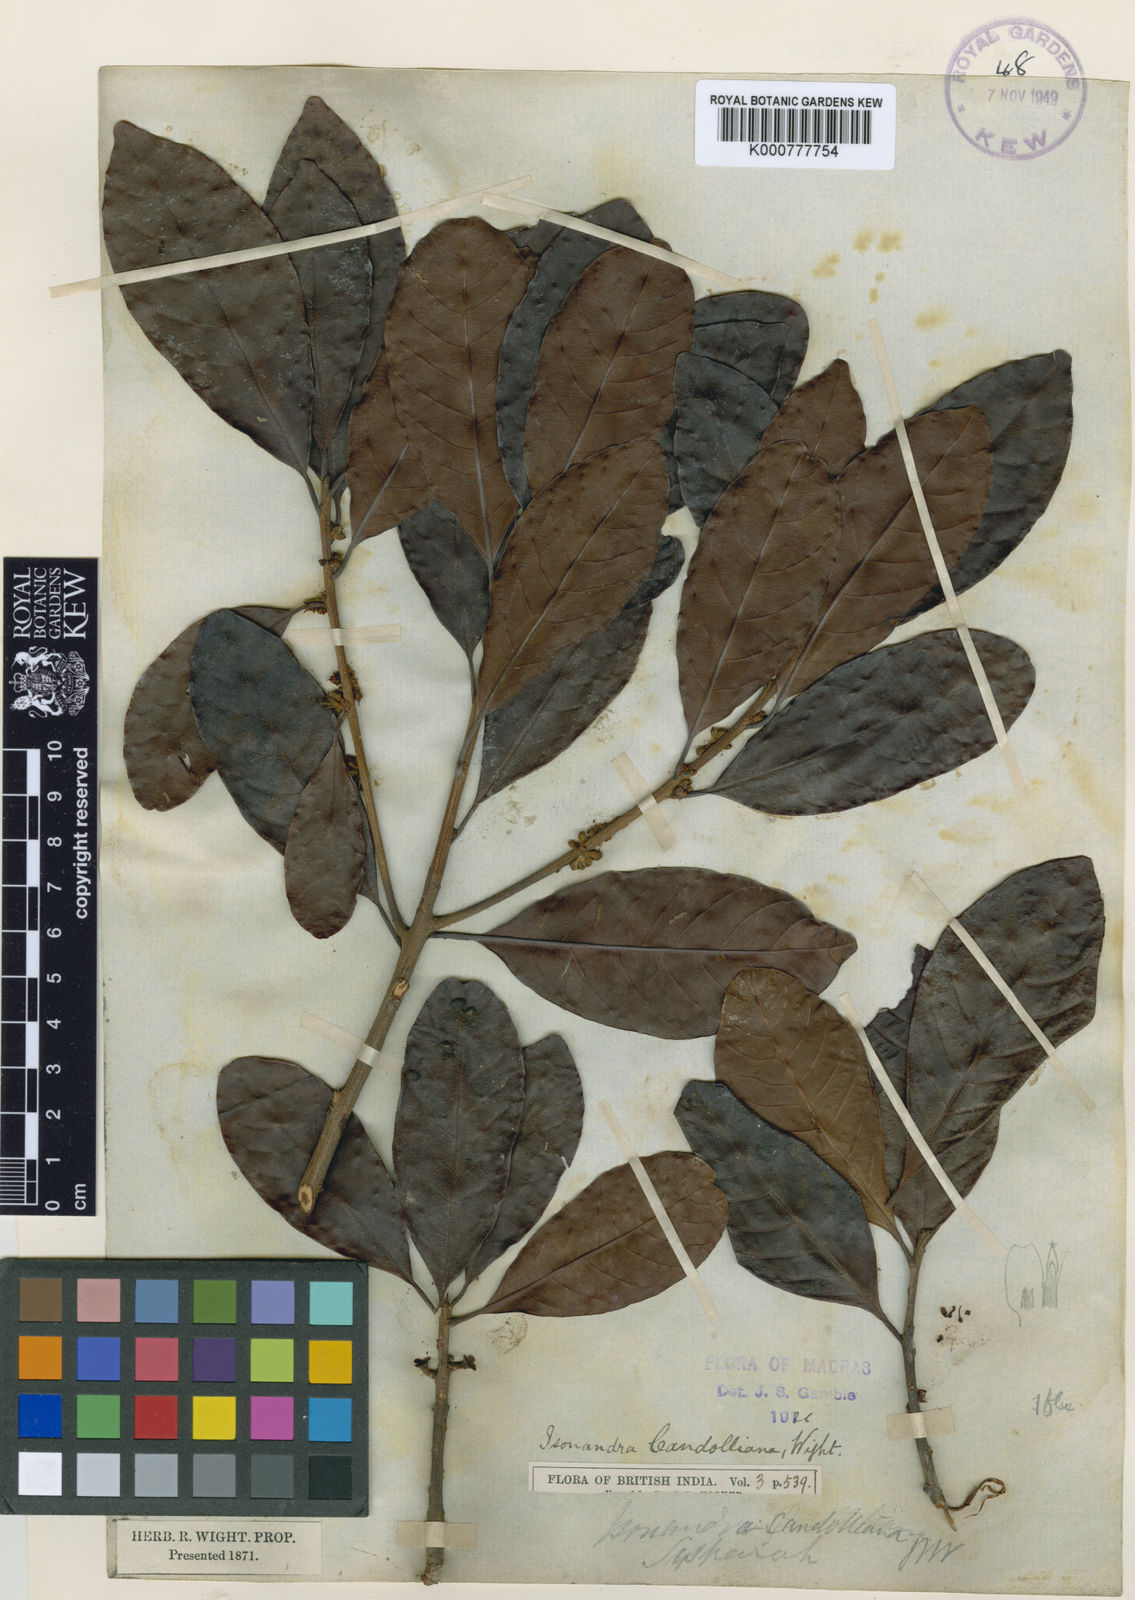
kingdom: Plantae
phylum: Tracheophyta
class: Magnoliopsida
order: Ericales
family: Sapotaceae
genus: Isonandra
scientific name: Isonandra perrottetiana
